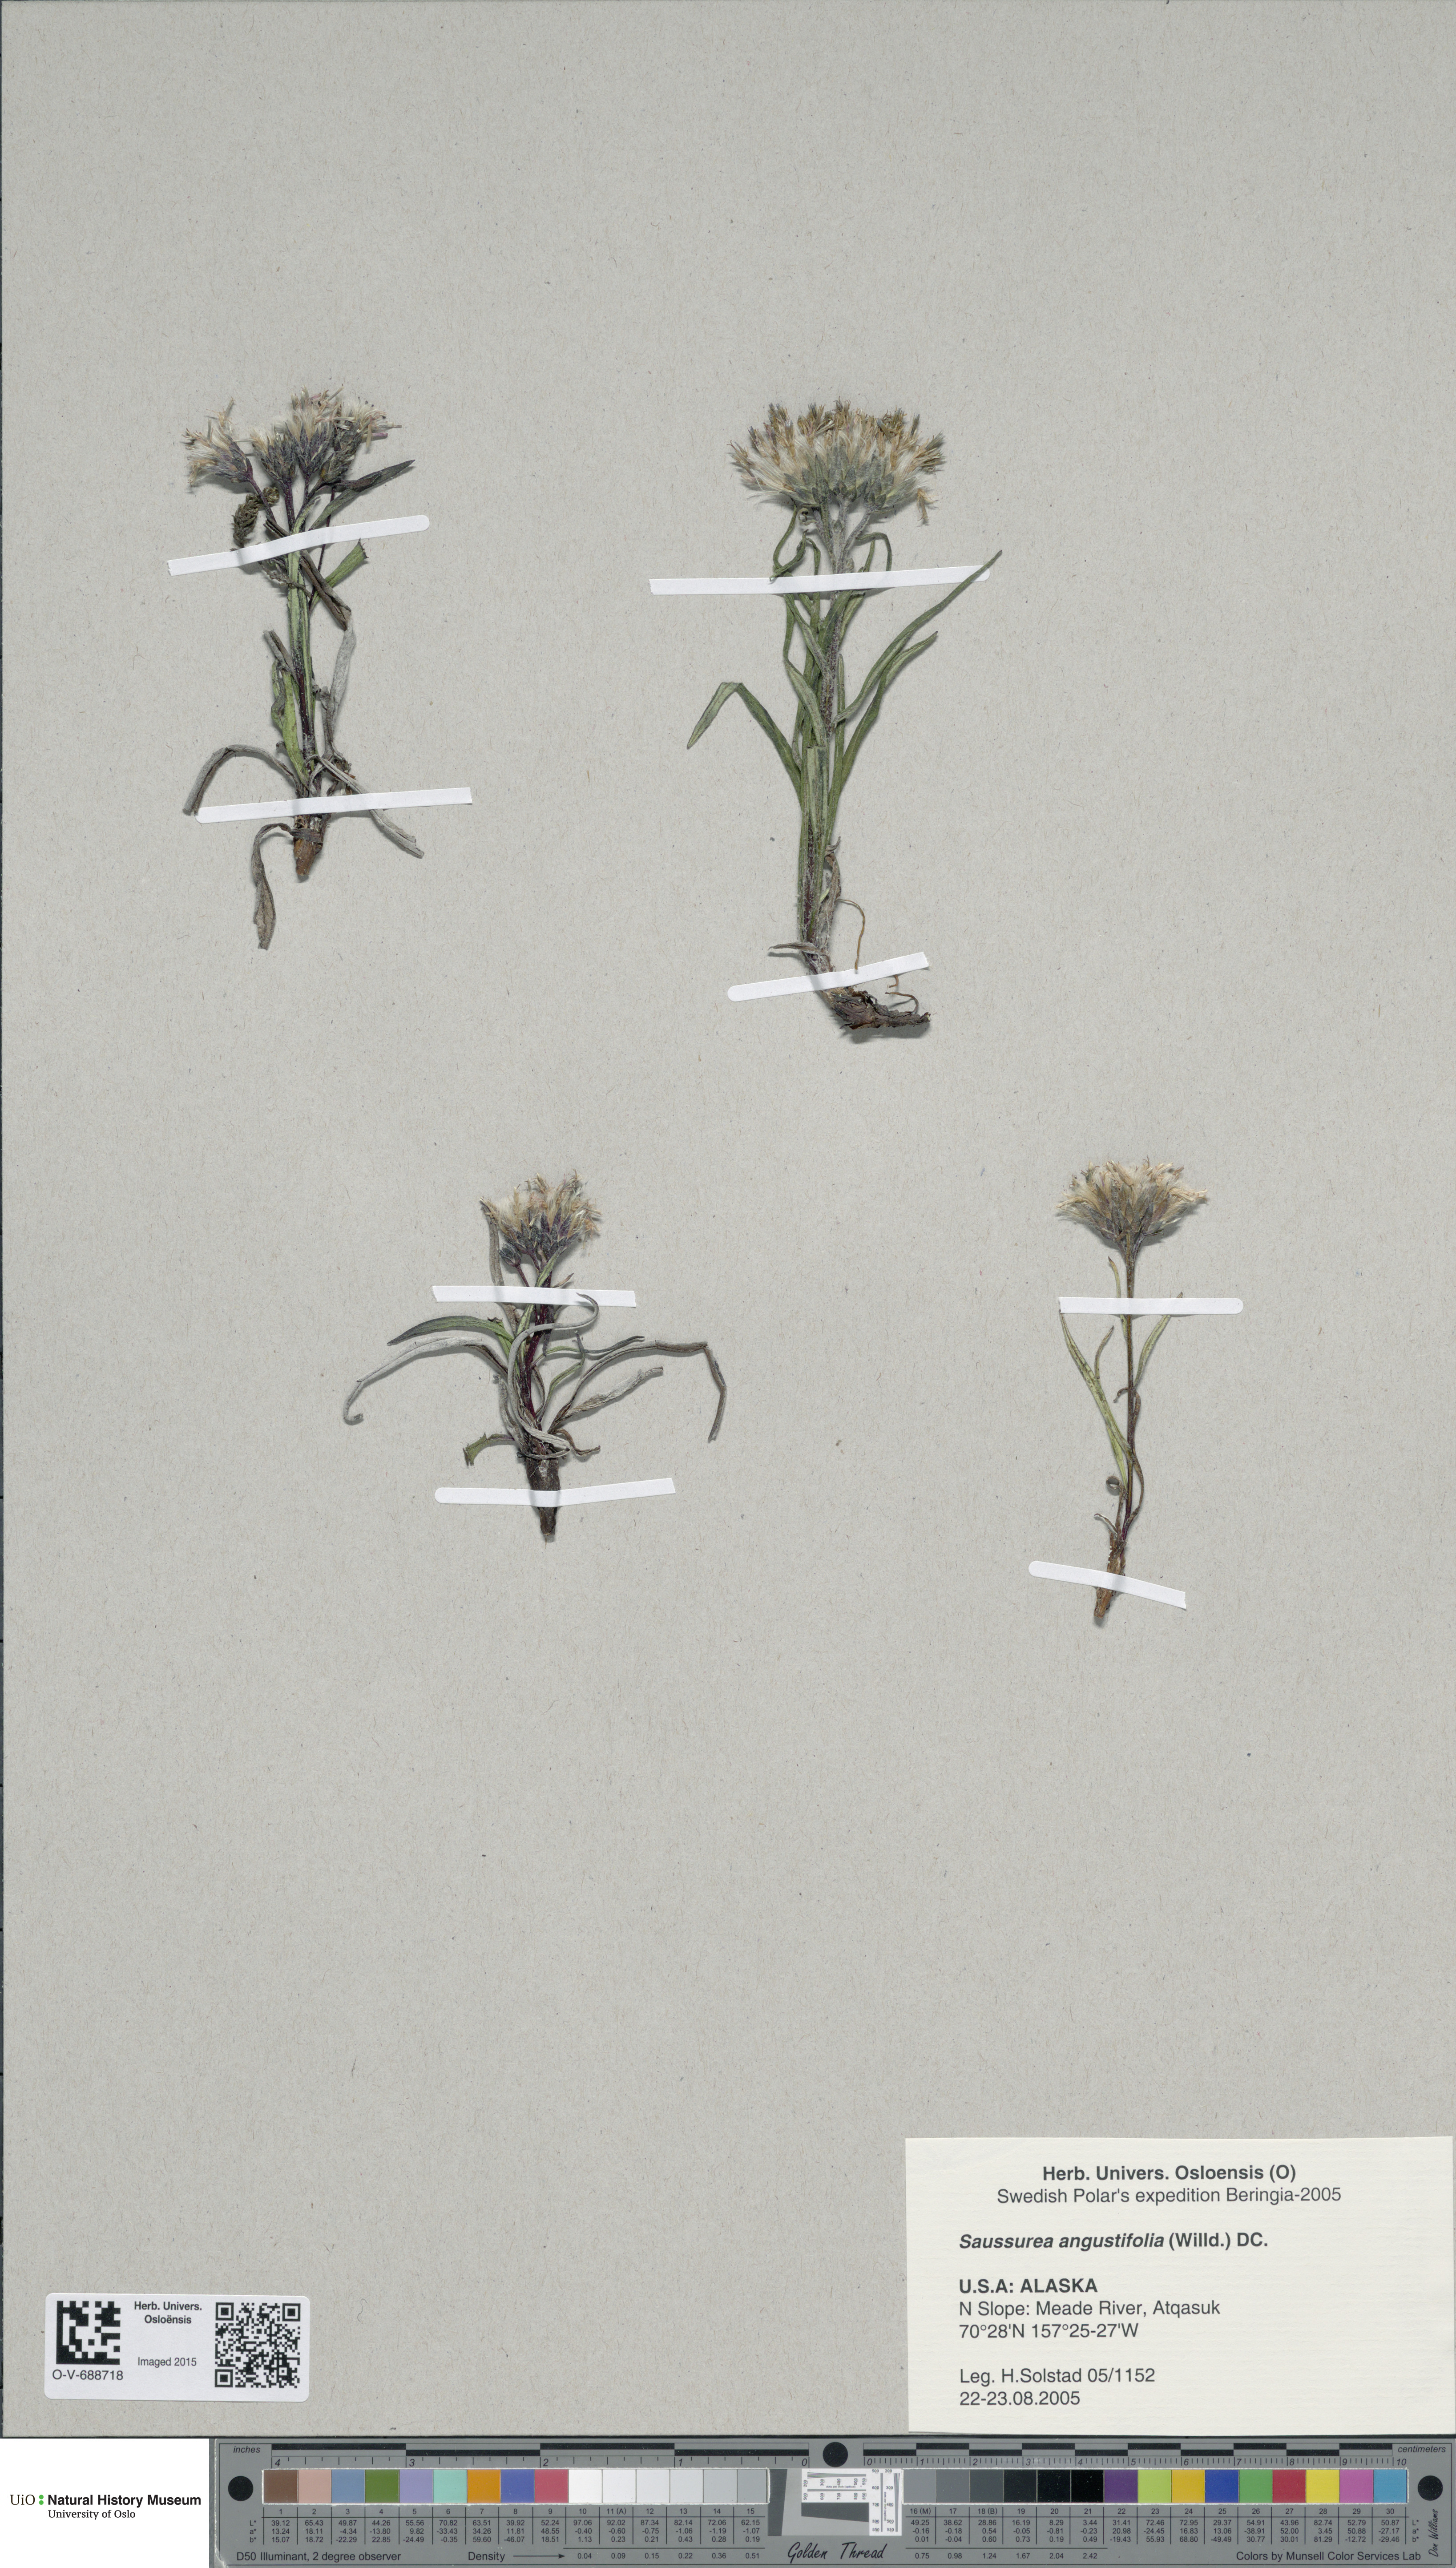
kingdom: Plantae
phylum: Tracheophyta
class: Magnoliopsida
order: Asterales
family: Asteraceae
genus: Saussurea
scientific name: Saussurea angustifolia
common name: Common saussurea
